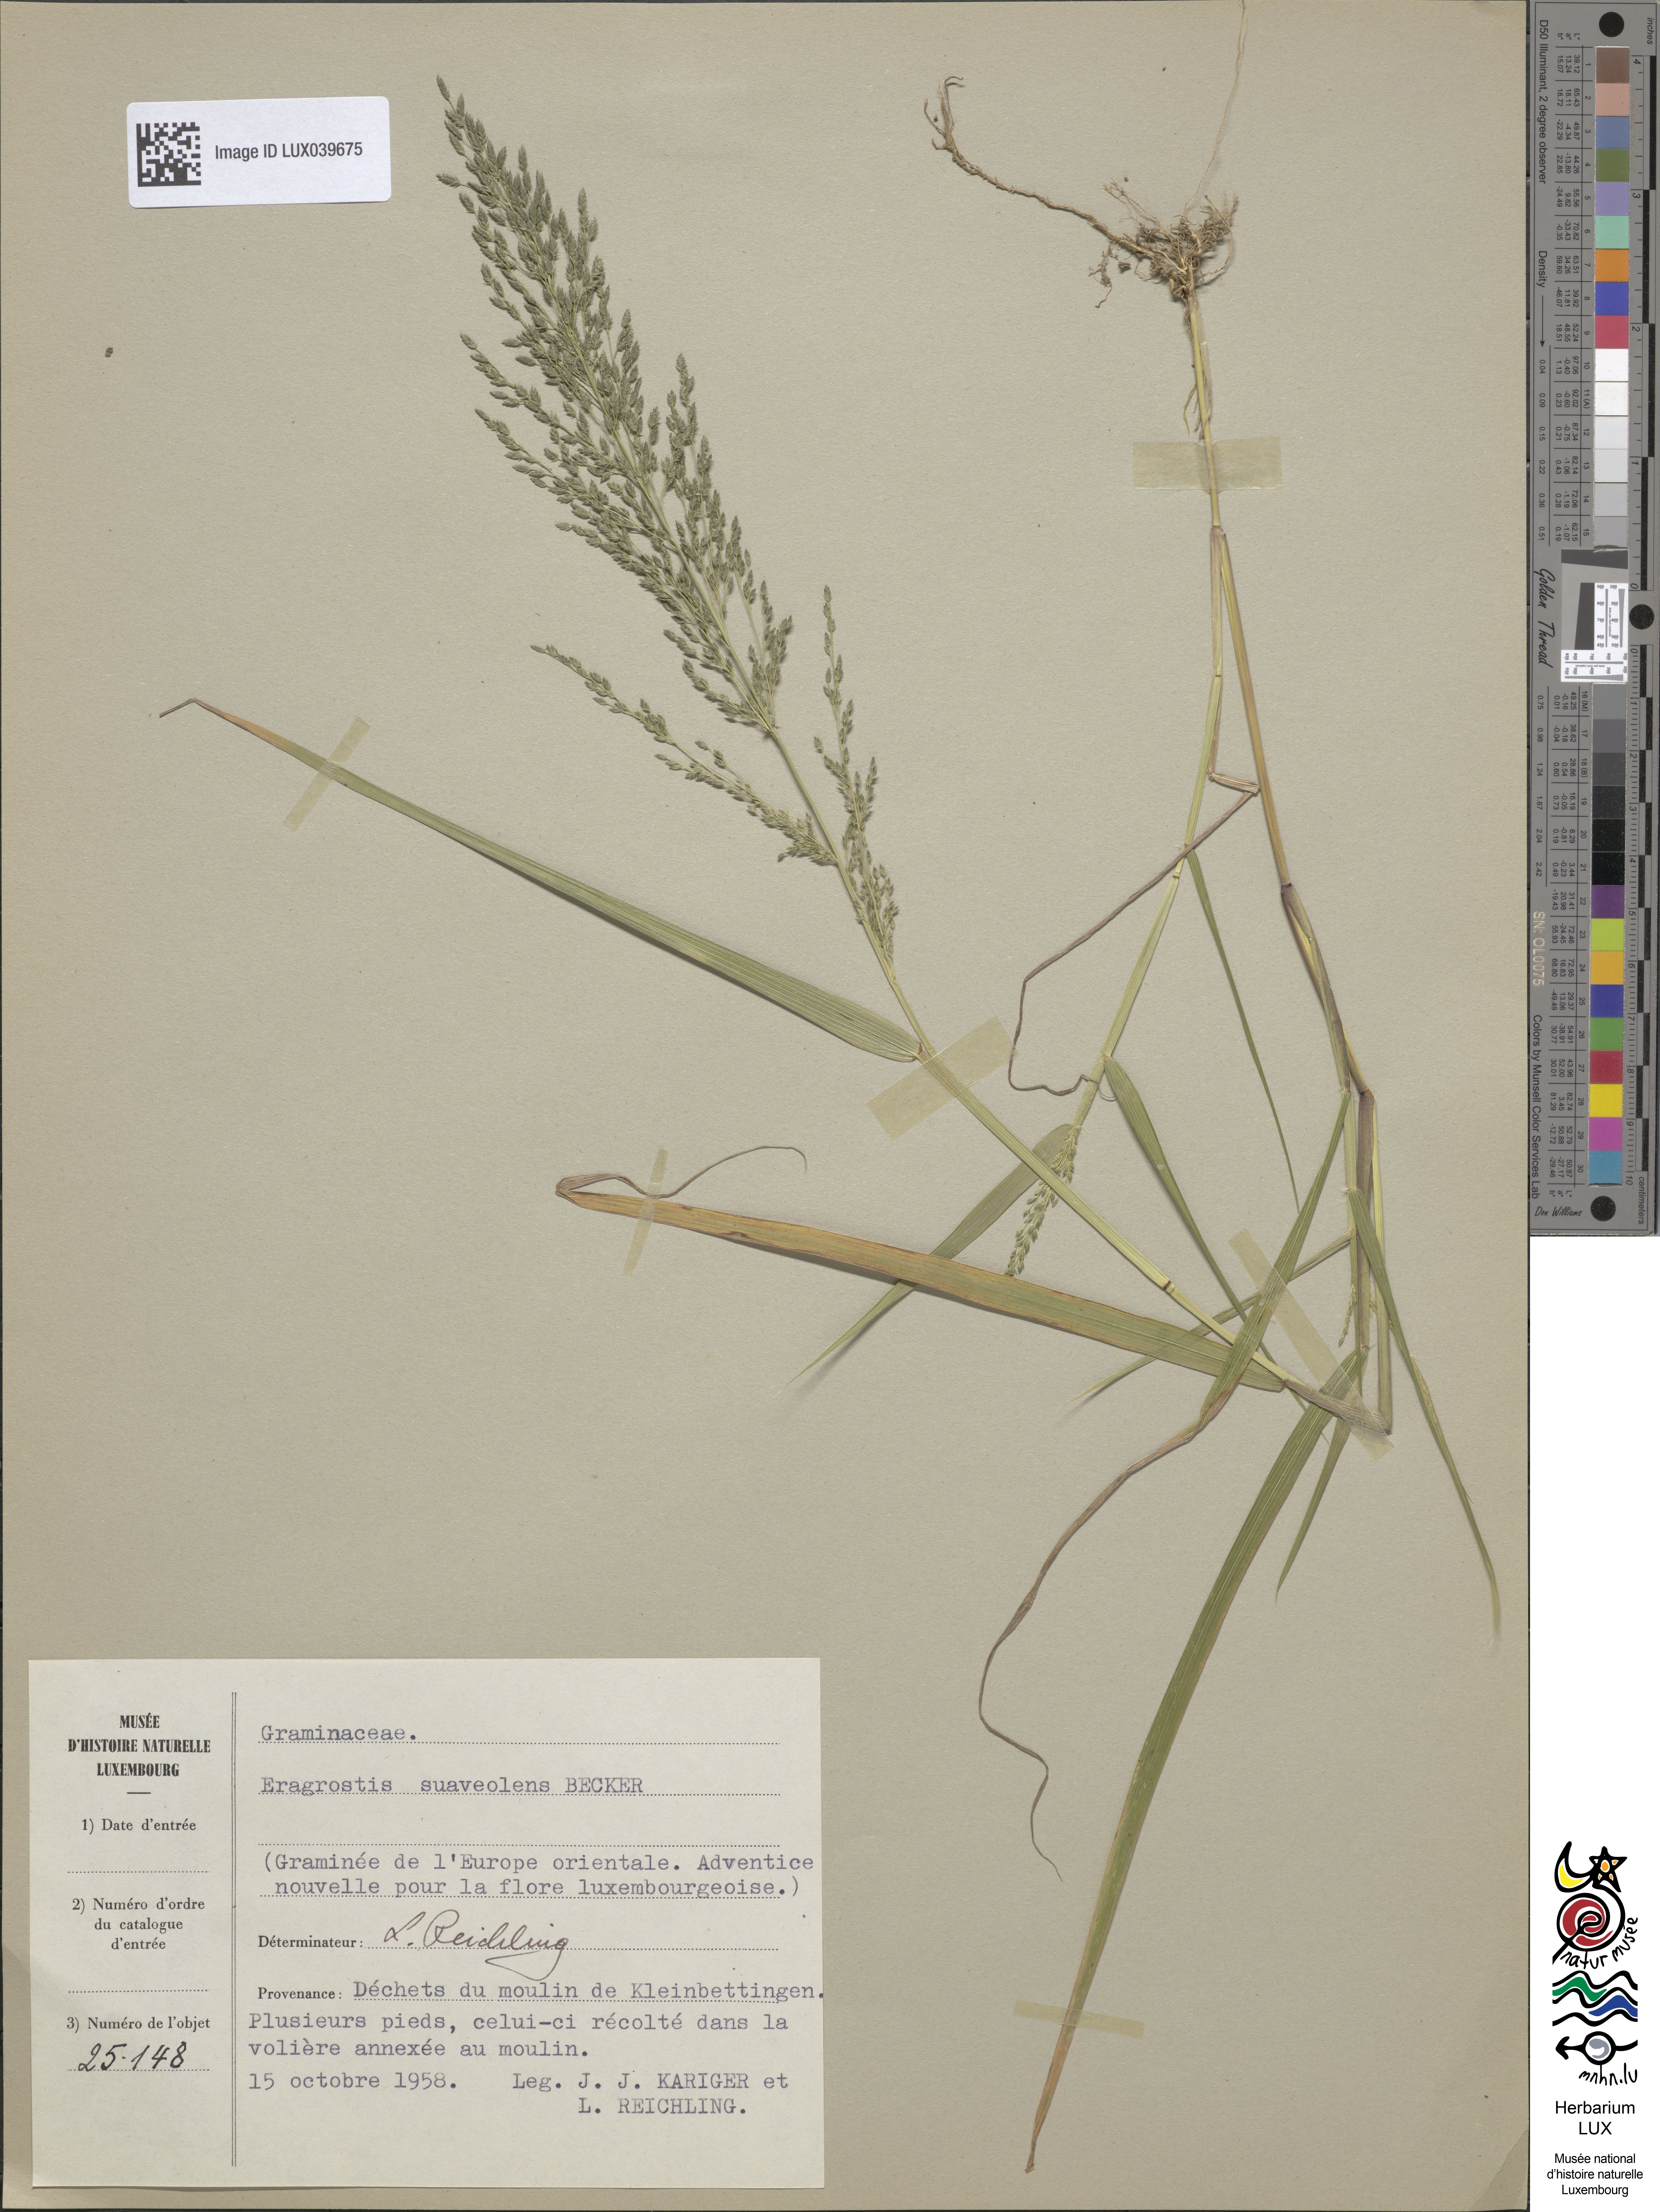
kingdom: Plantae
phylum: Tracheophyta
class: Liliopsida
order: Poales
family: Poaceae
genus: Eragrostis
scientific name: Eragrostis minor
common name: Small love-grass
